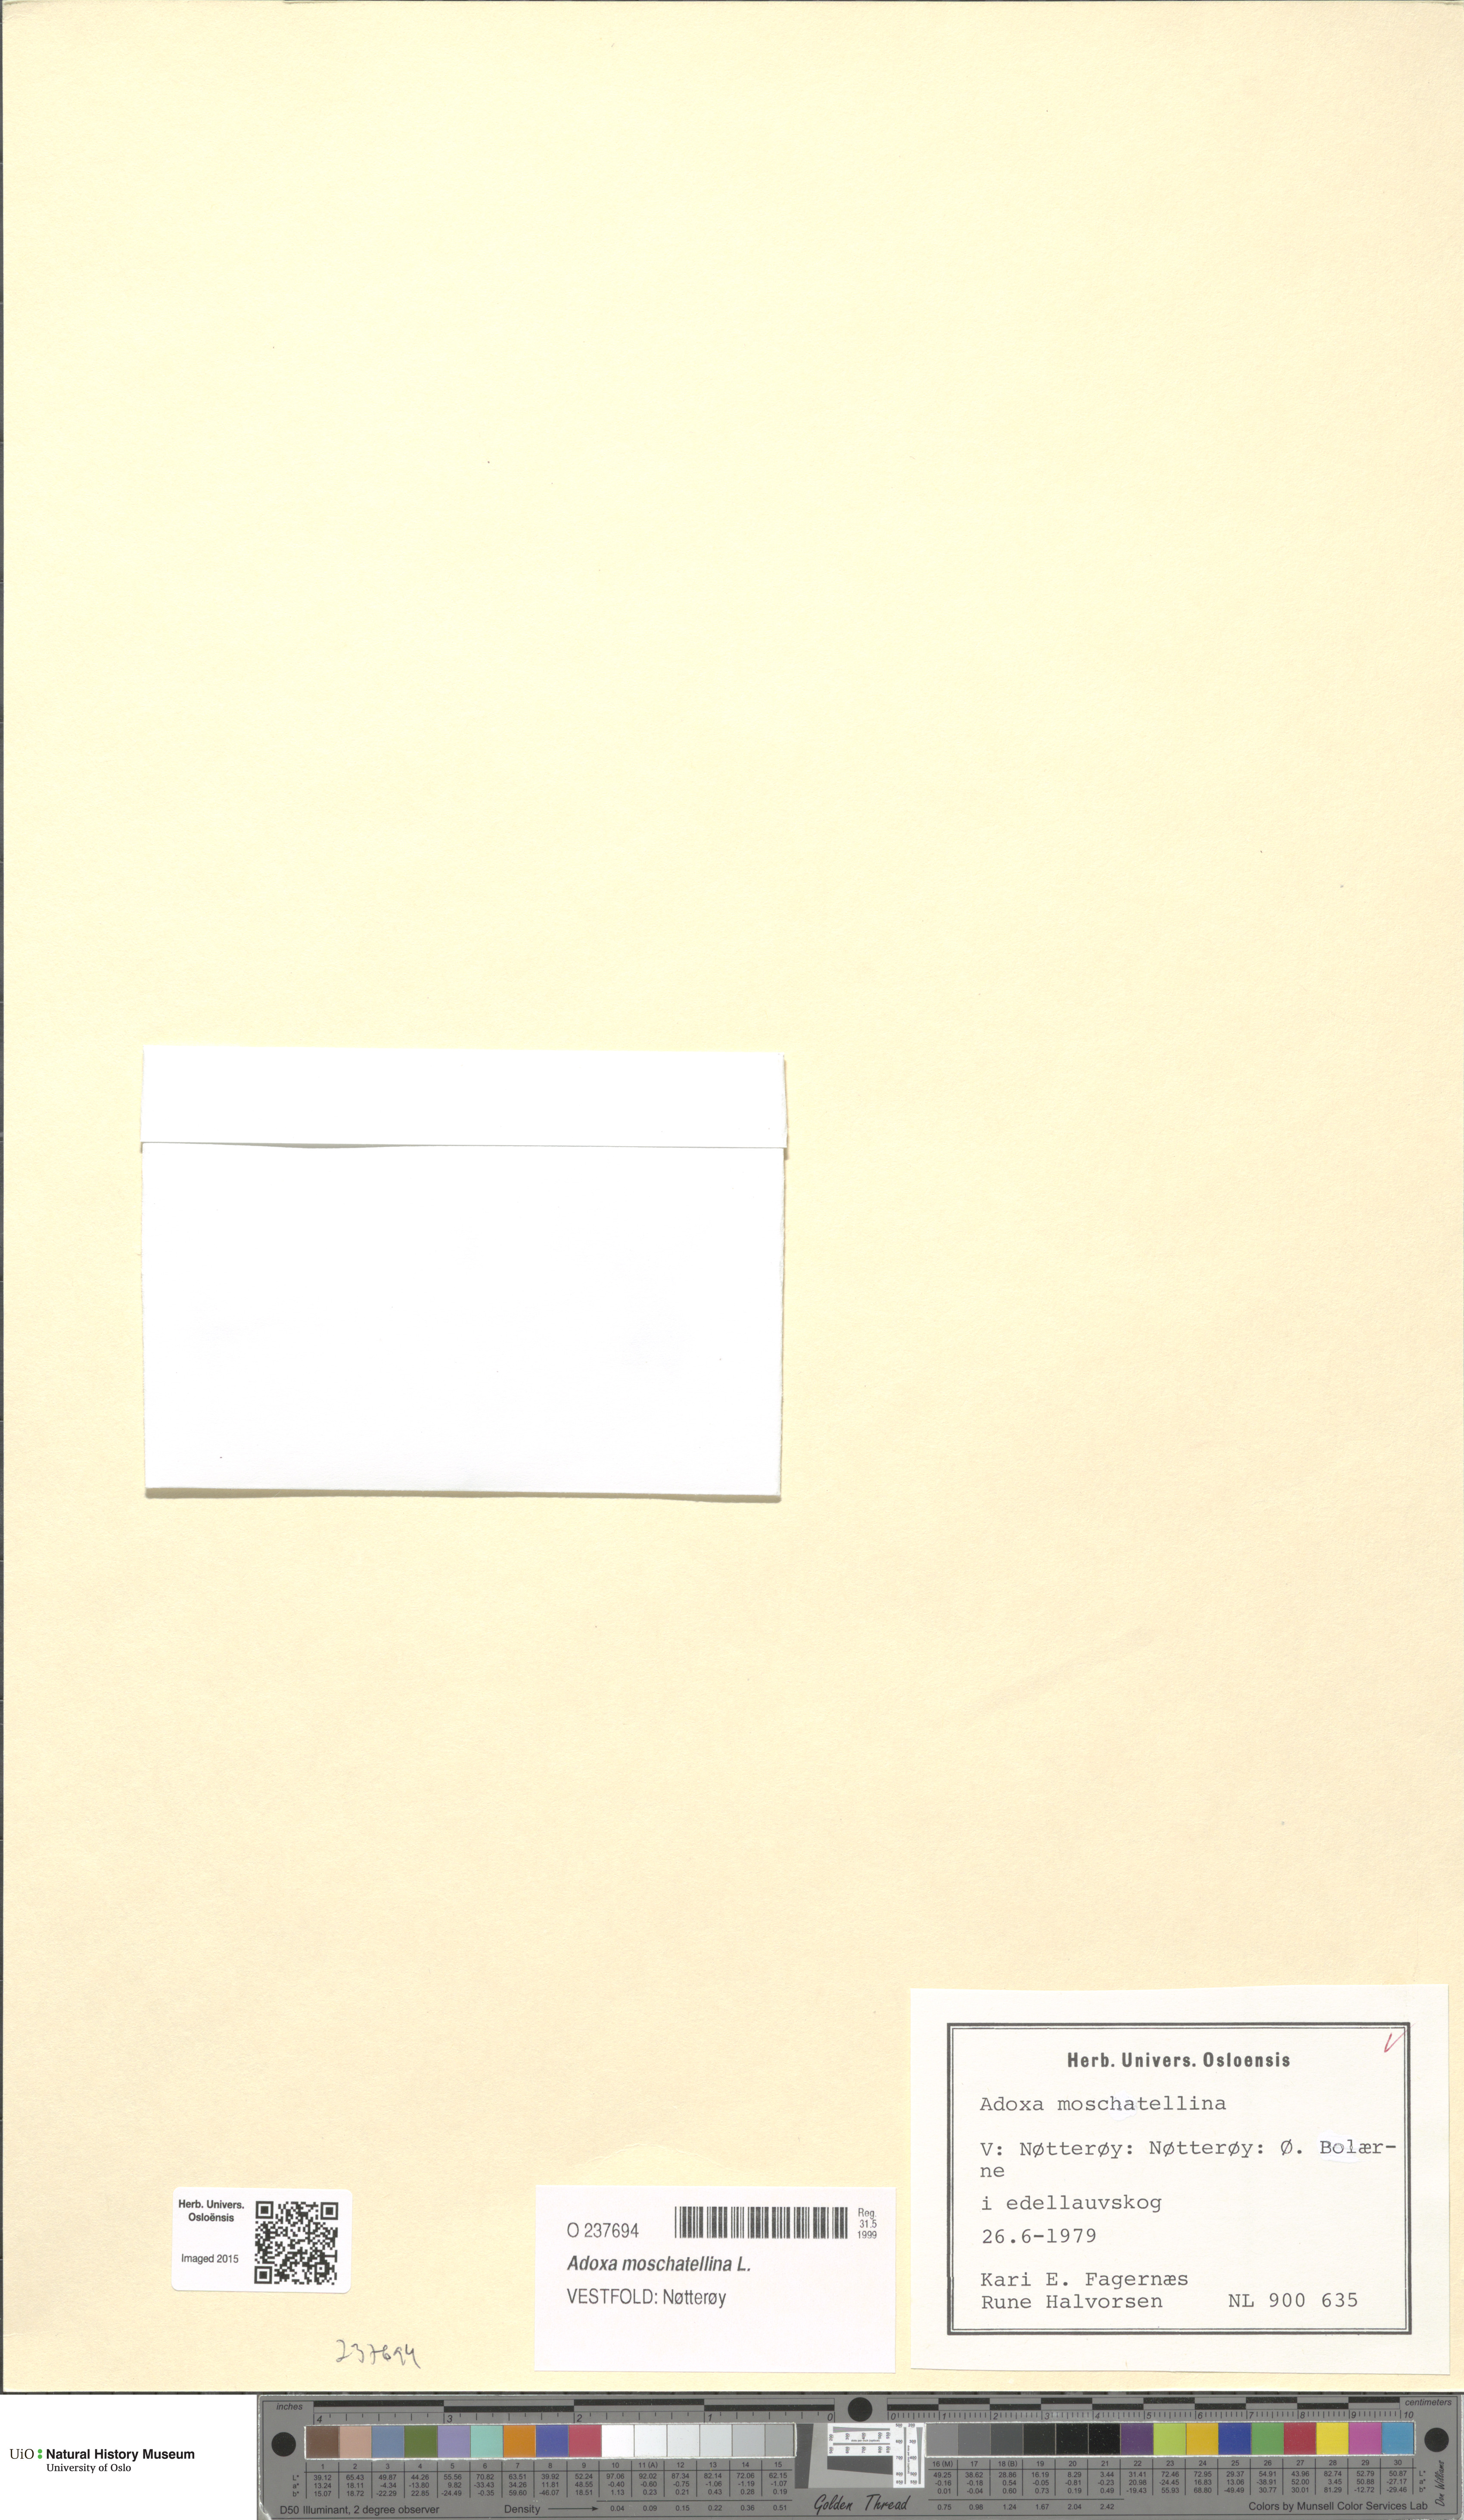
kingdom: Plantae
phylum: Tracheophyta
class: Magnoliopsida
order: Dipsacales
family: Viburnaceae
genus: Adoxa
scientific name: Adoxa moschatellina
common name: Moschatel
